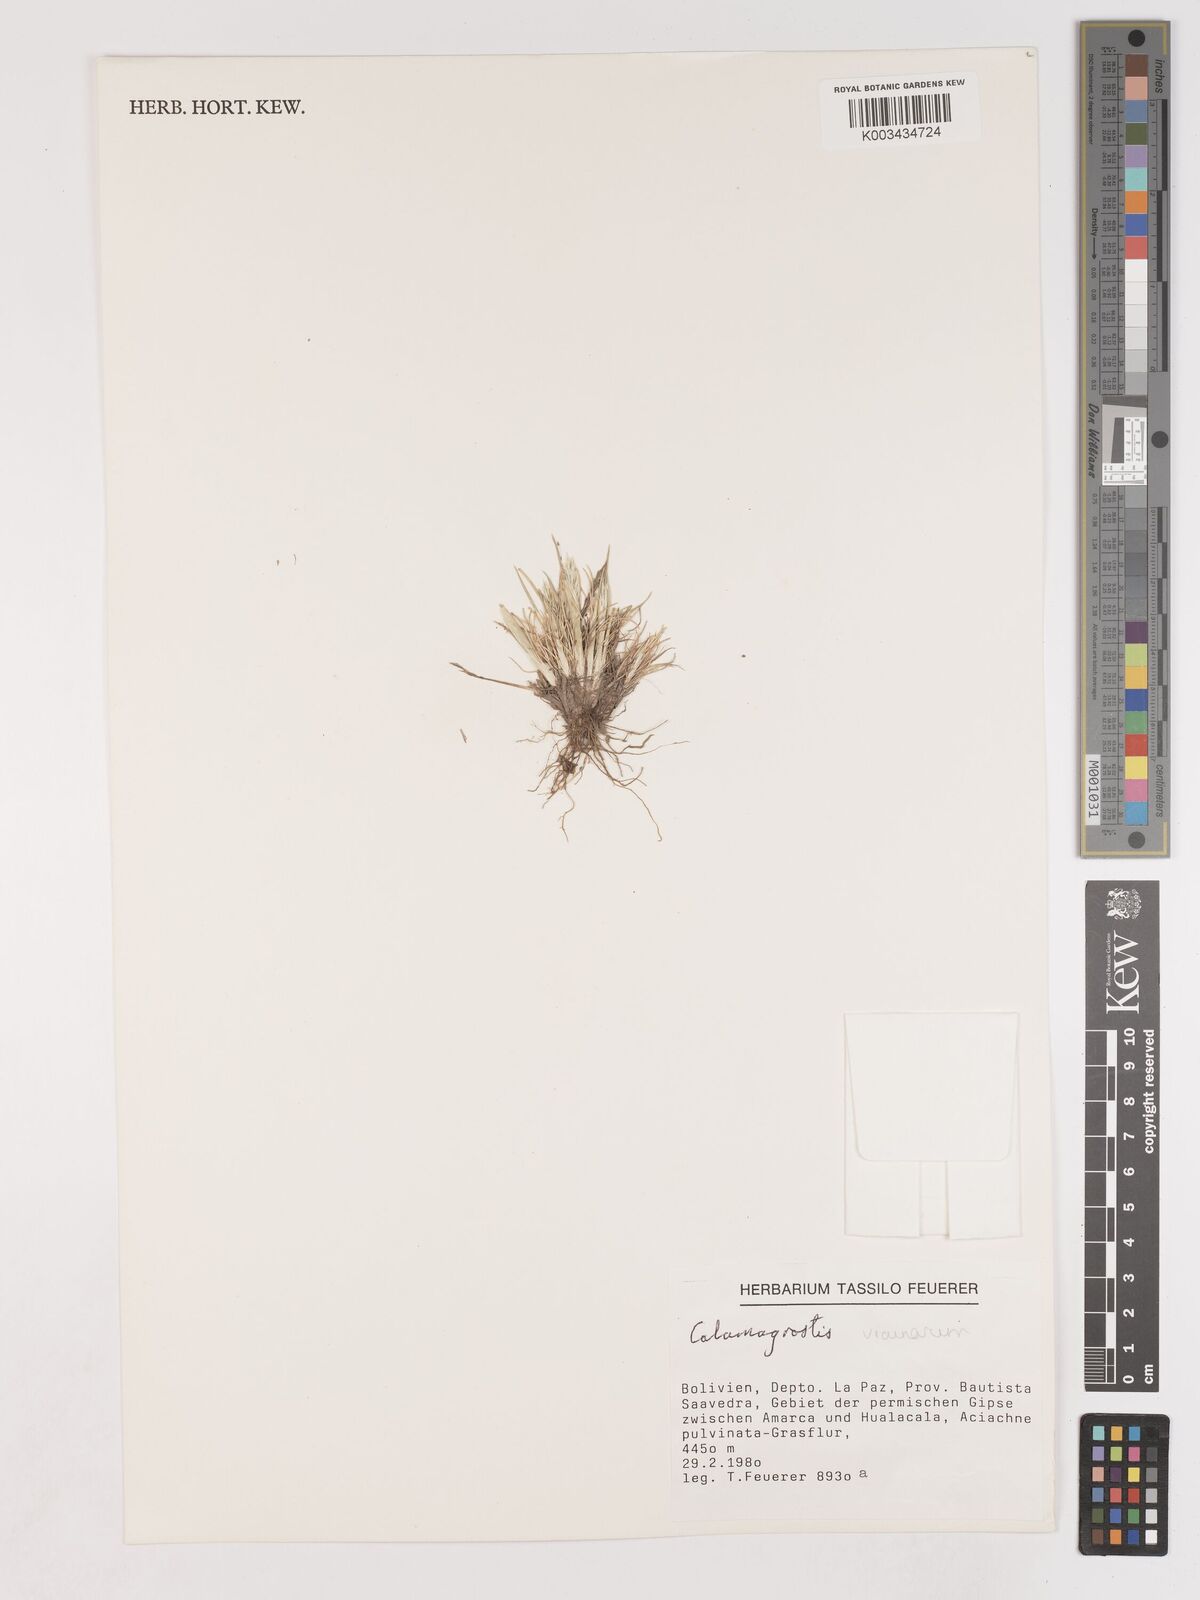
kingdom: Plantae
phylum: Tracheophyta
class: Liliopsida
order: Poales
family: Poaceae
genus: Cinnagrostis
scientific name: Cinnagrostis vicunarum
